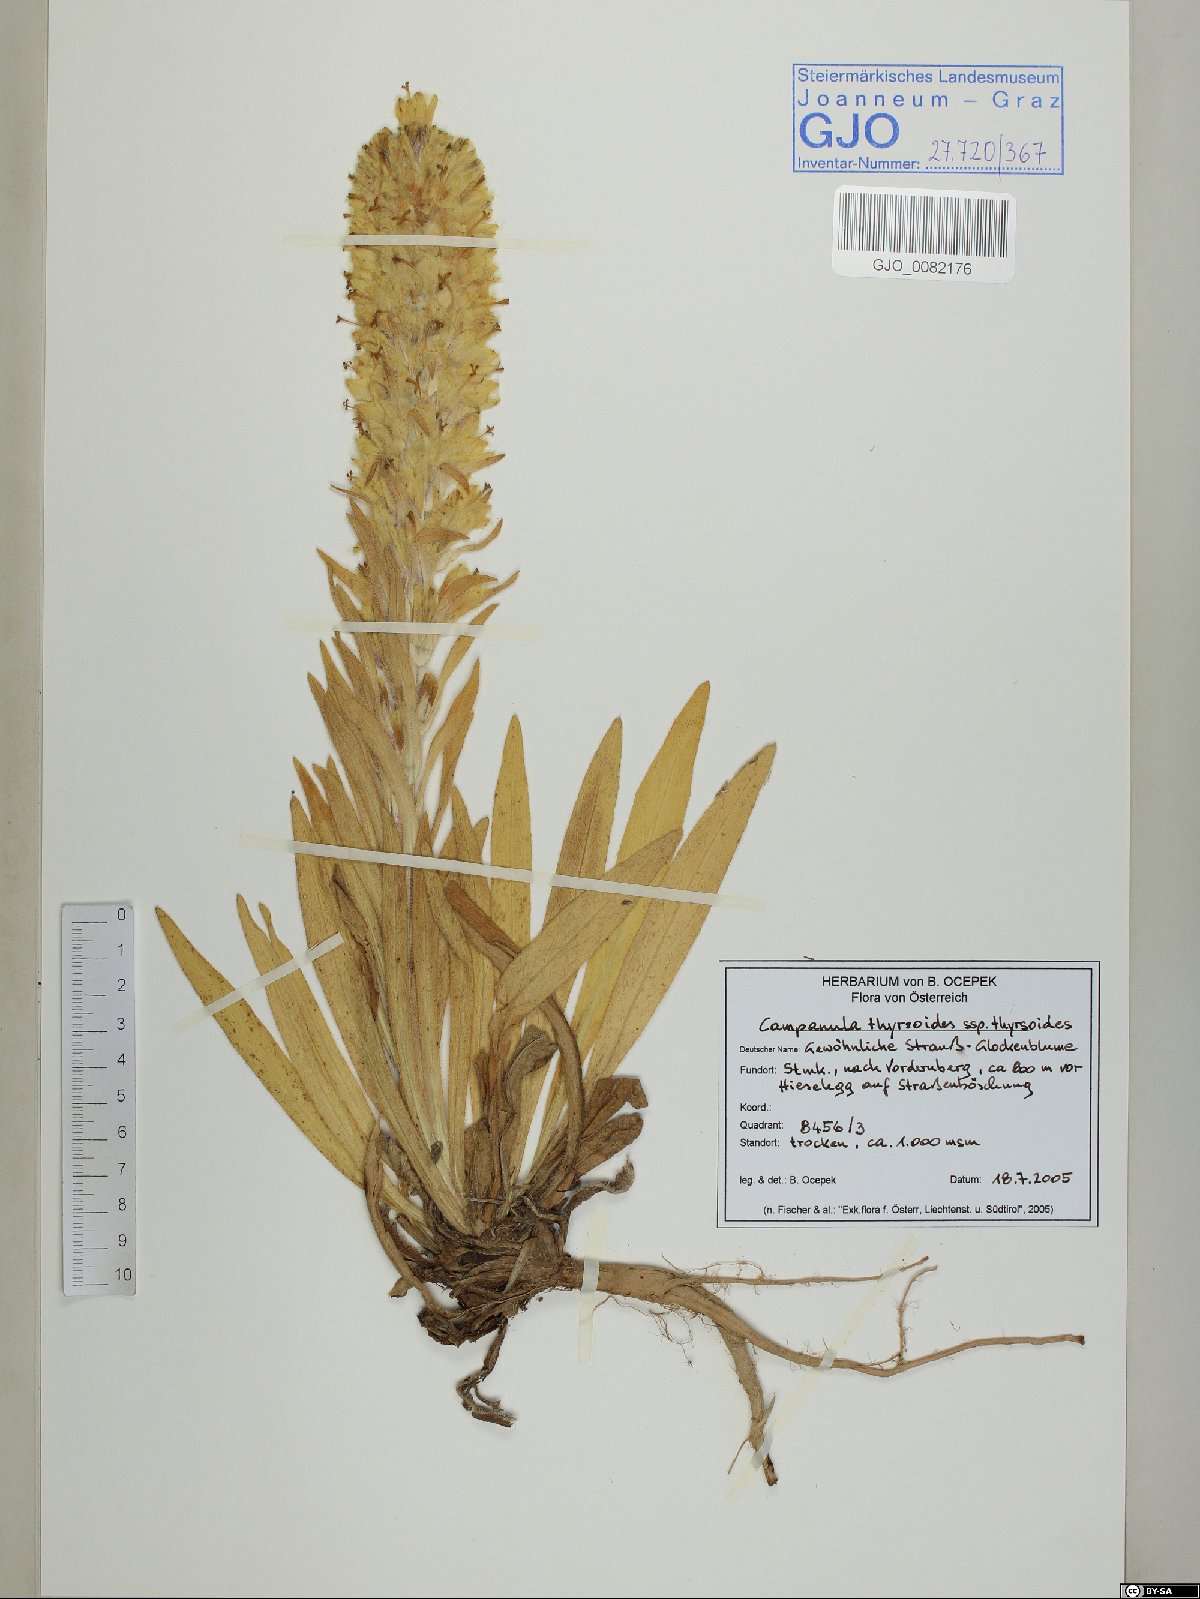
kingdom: Plantae
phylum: Tracheophyta
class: Magnoliopsida
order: Asterales
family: Campanulaceae
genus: Campanula
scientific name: Campanula thyrsoides
